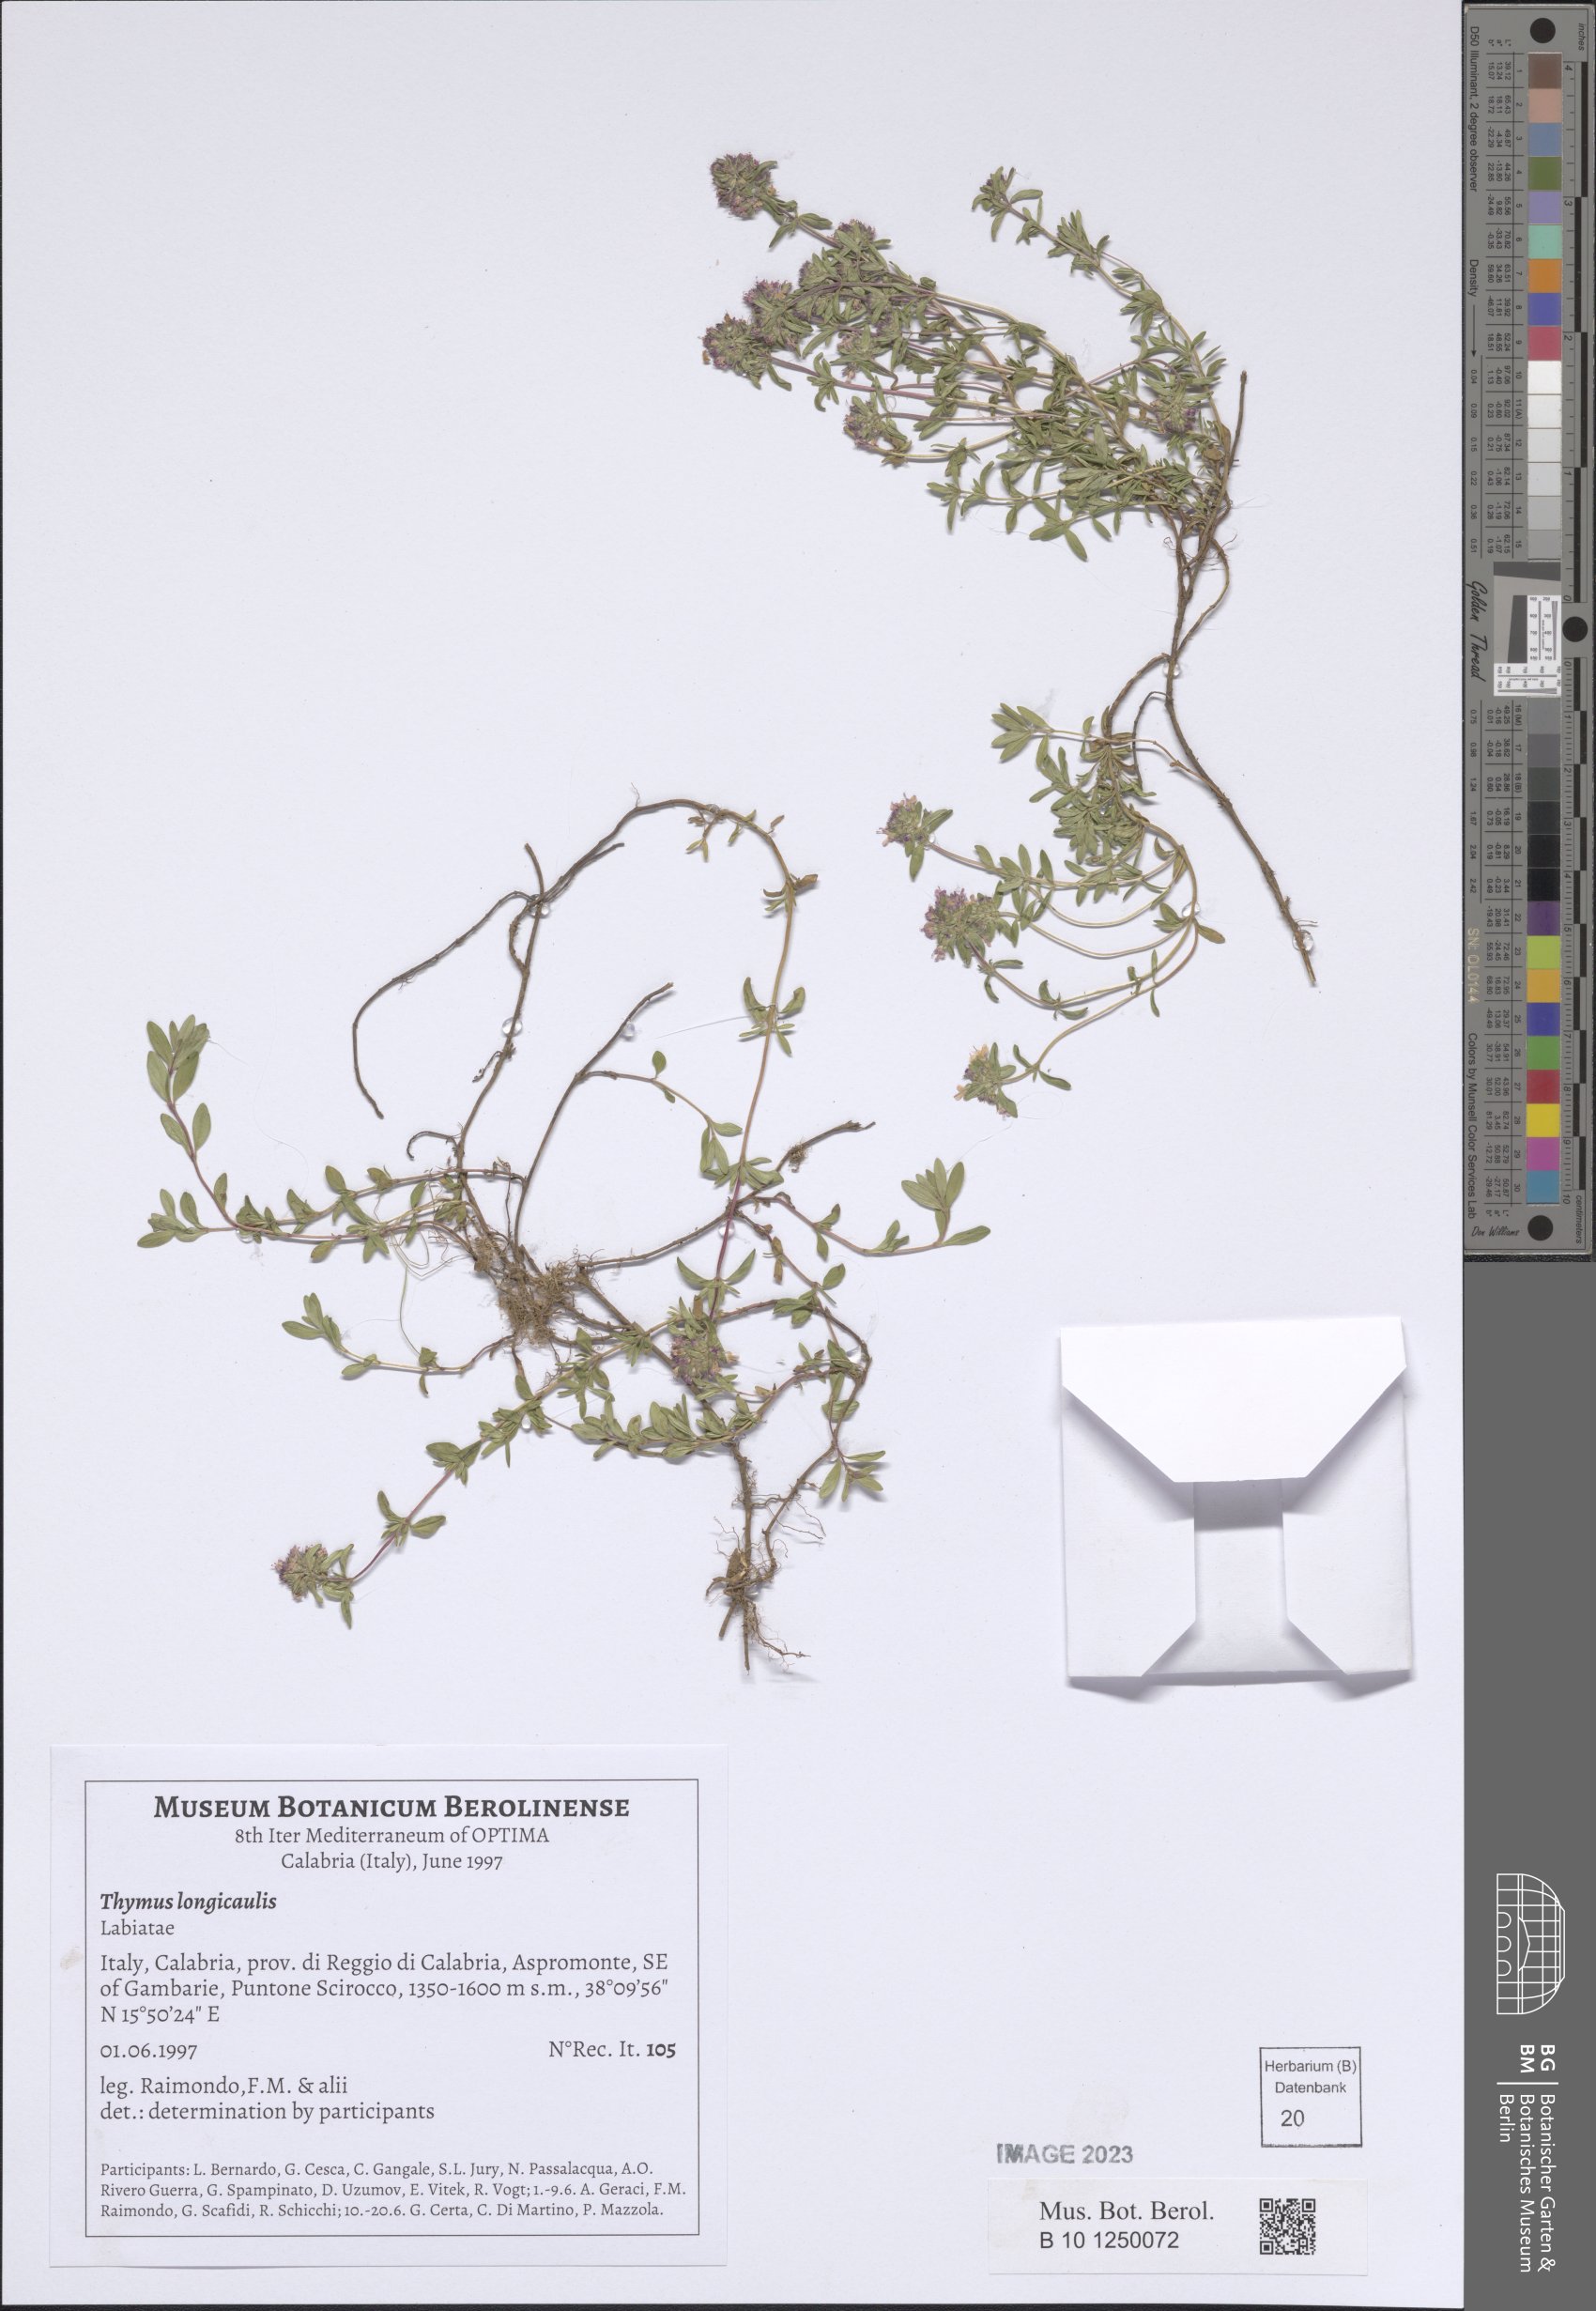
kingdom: Plantae
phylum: Tracheophyta
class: Magnoliopsida
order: Lamiales
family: Lamiaceae
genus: Thymus
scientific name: Thymus longicaulis
